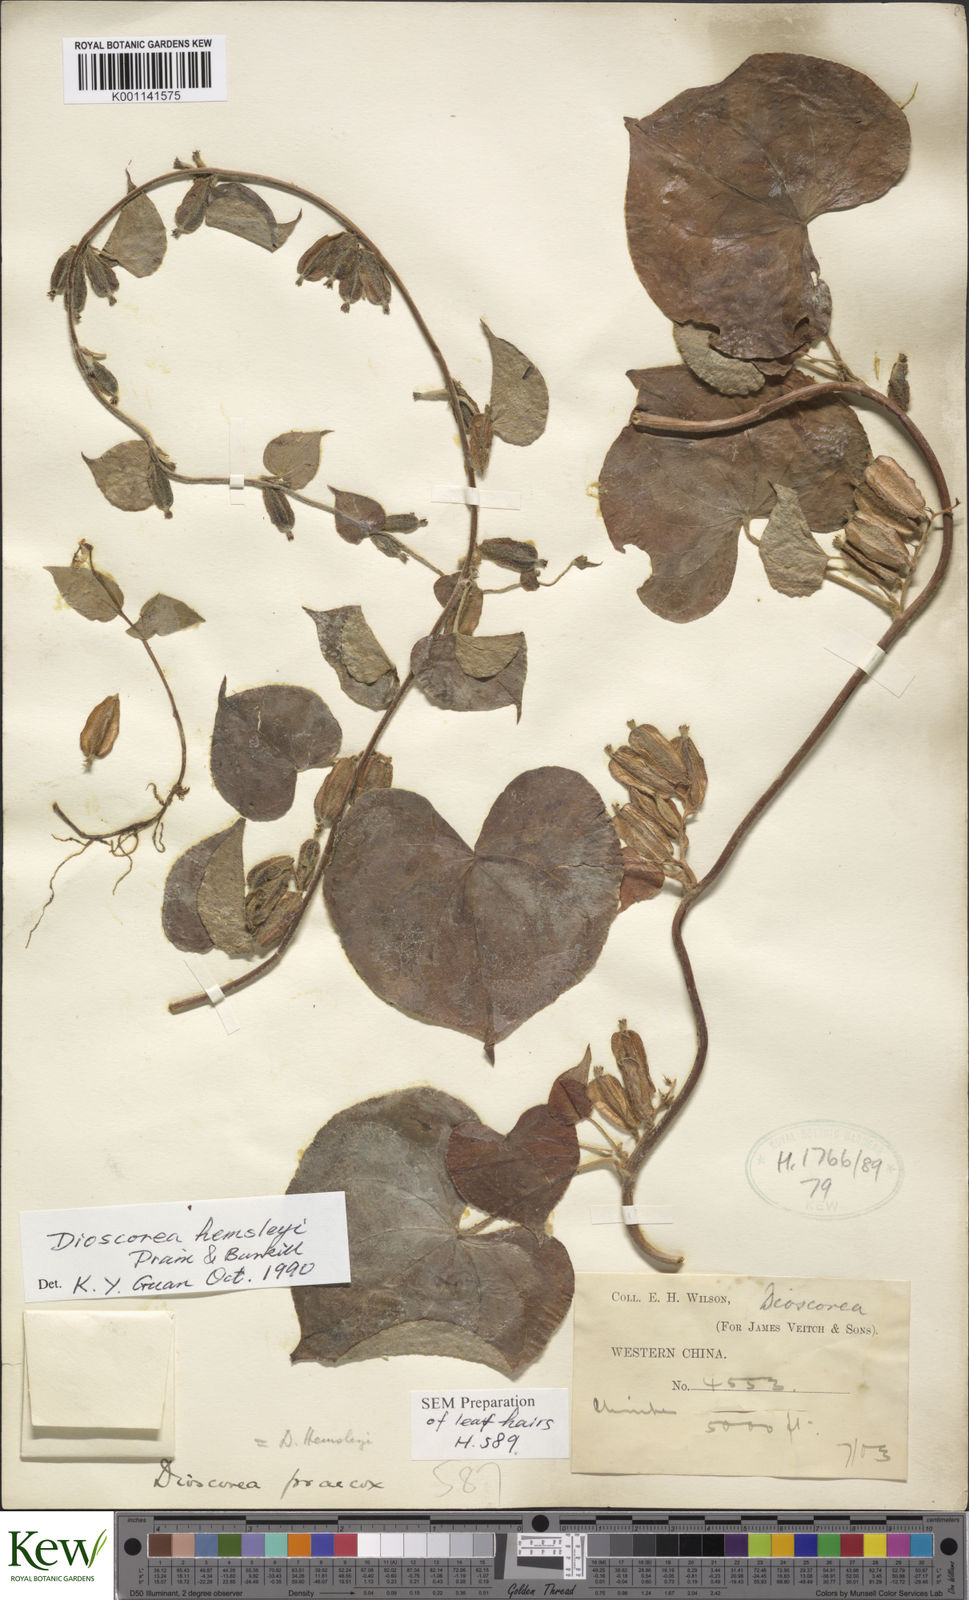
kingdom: Plantae
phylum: Tracheophyta
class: Liliopsida
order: Dioscoreales
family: Dioscoreaceae
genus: Dioscorea
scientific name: Dioscorea hemsleyi
